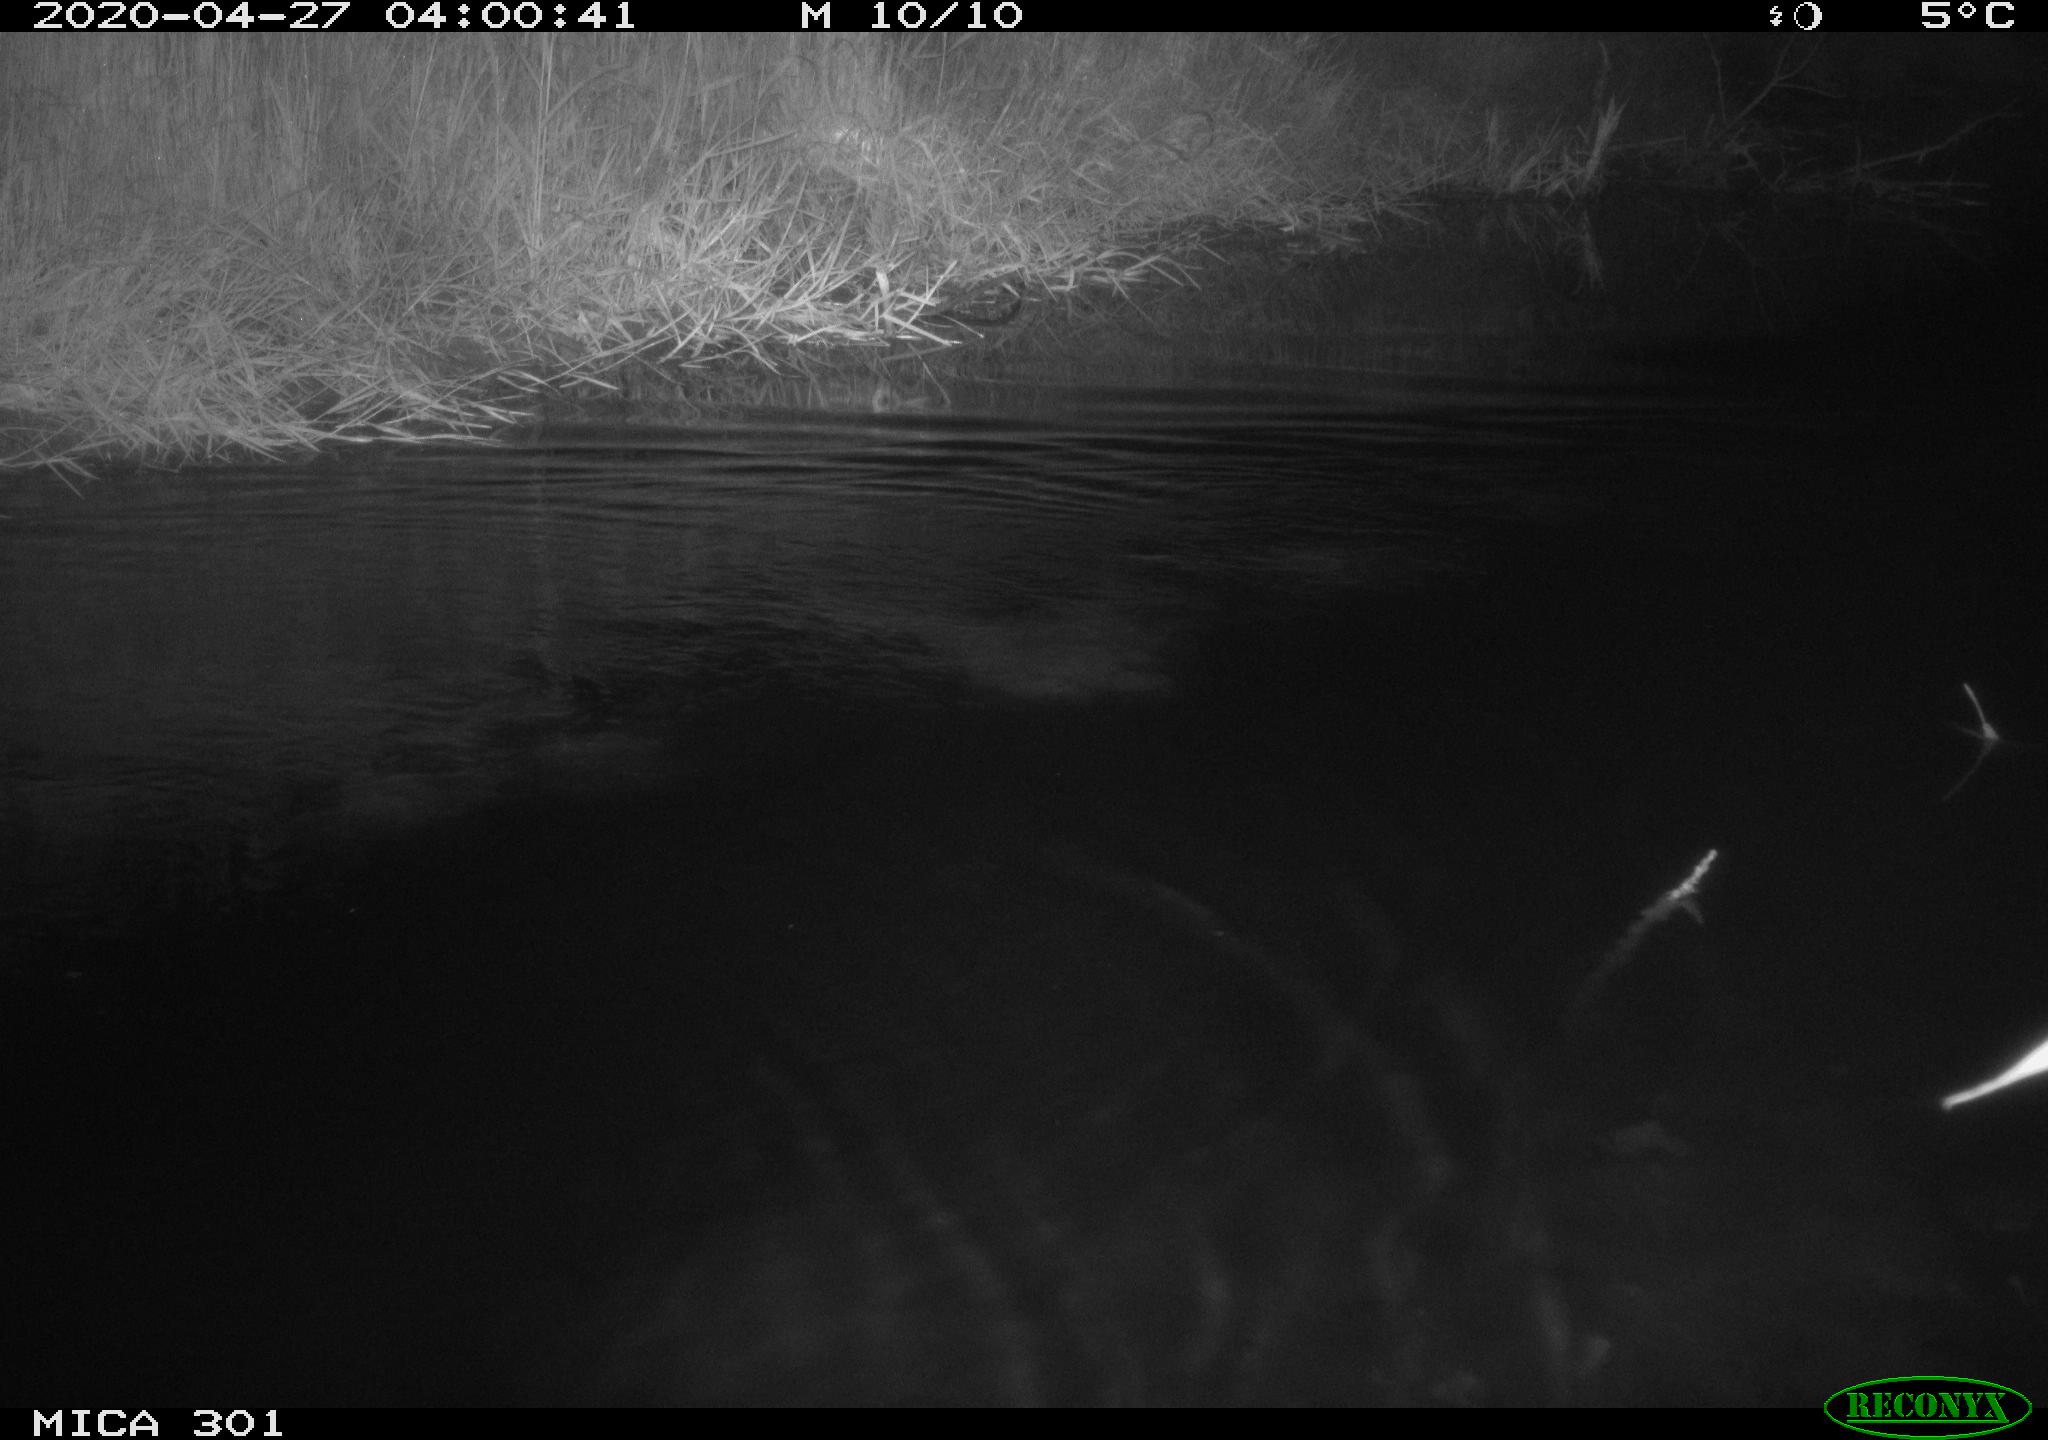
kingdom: Animalia
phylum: Chordata
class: Mammalia
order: Rodentia
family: Castoridae
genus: Castor
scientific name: Castor fiber
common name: Eurasian beaver
